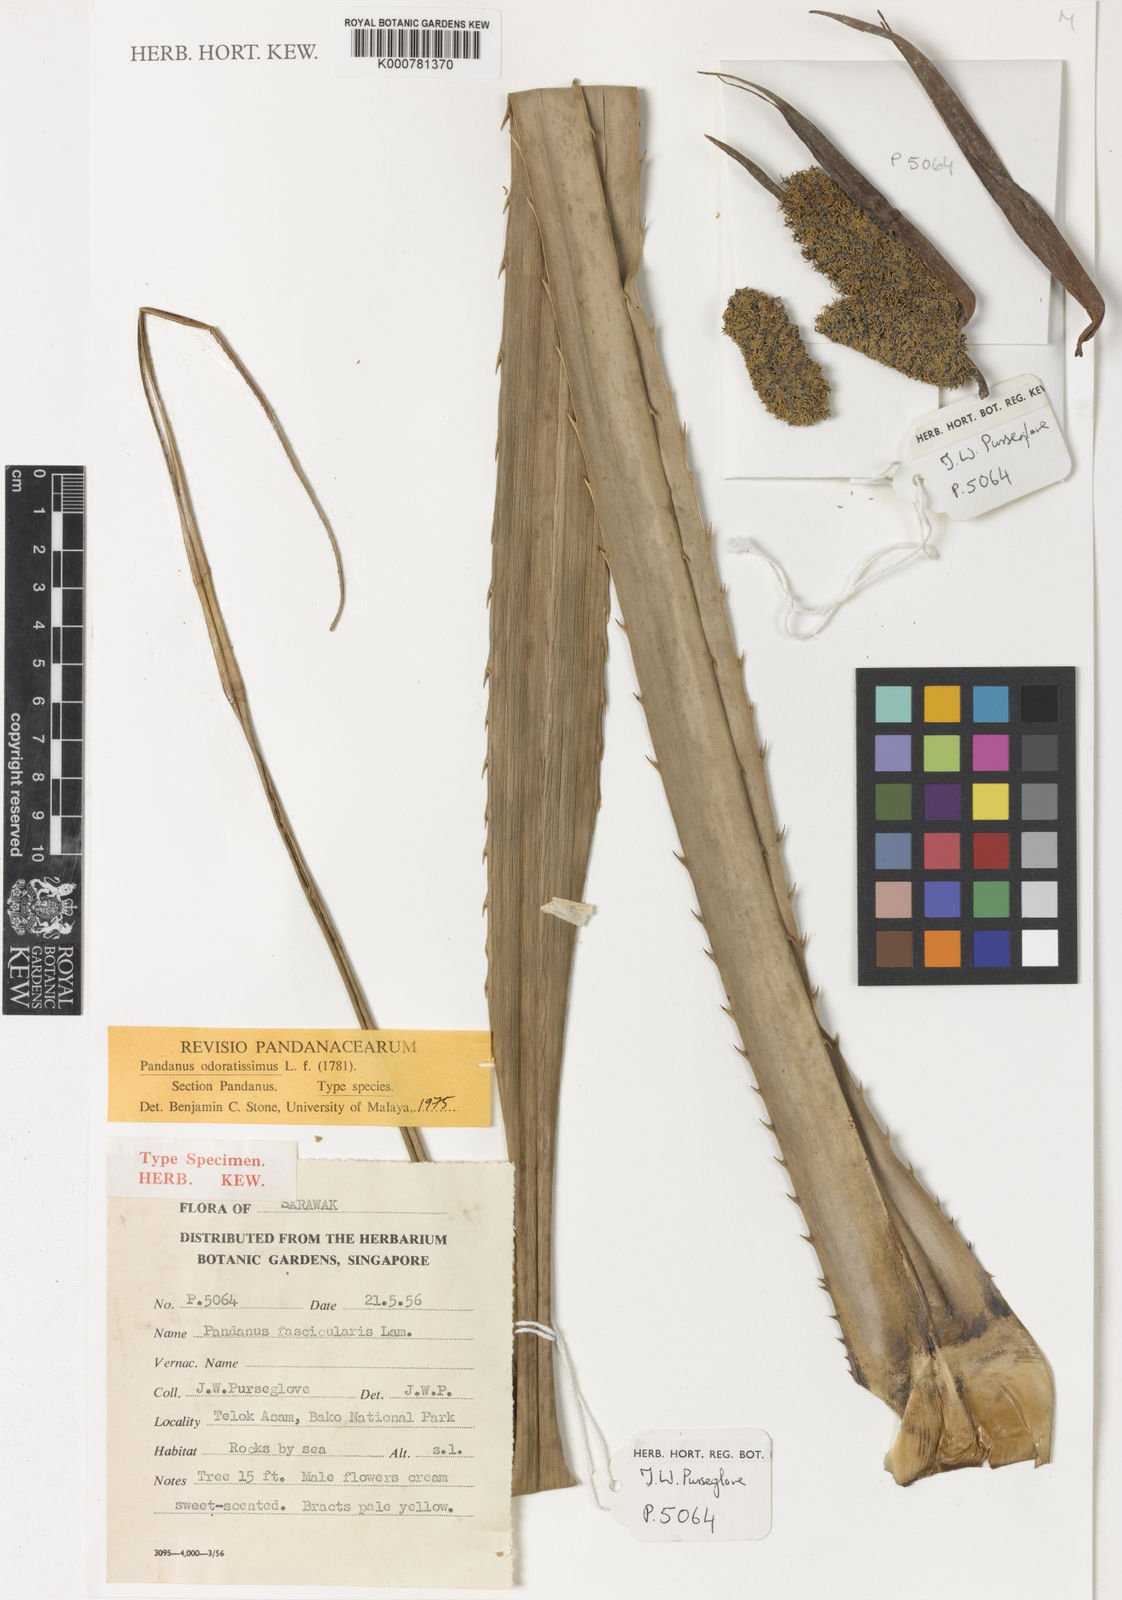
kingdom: Plantae
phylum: Tracheophyta
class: Liliopsida
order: Pandanales
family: Pandanaceae
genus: Pandanus
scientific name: Pandanus odorifer
